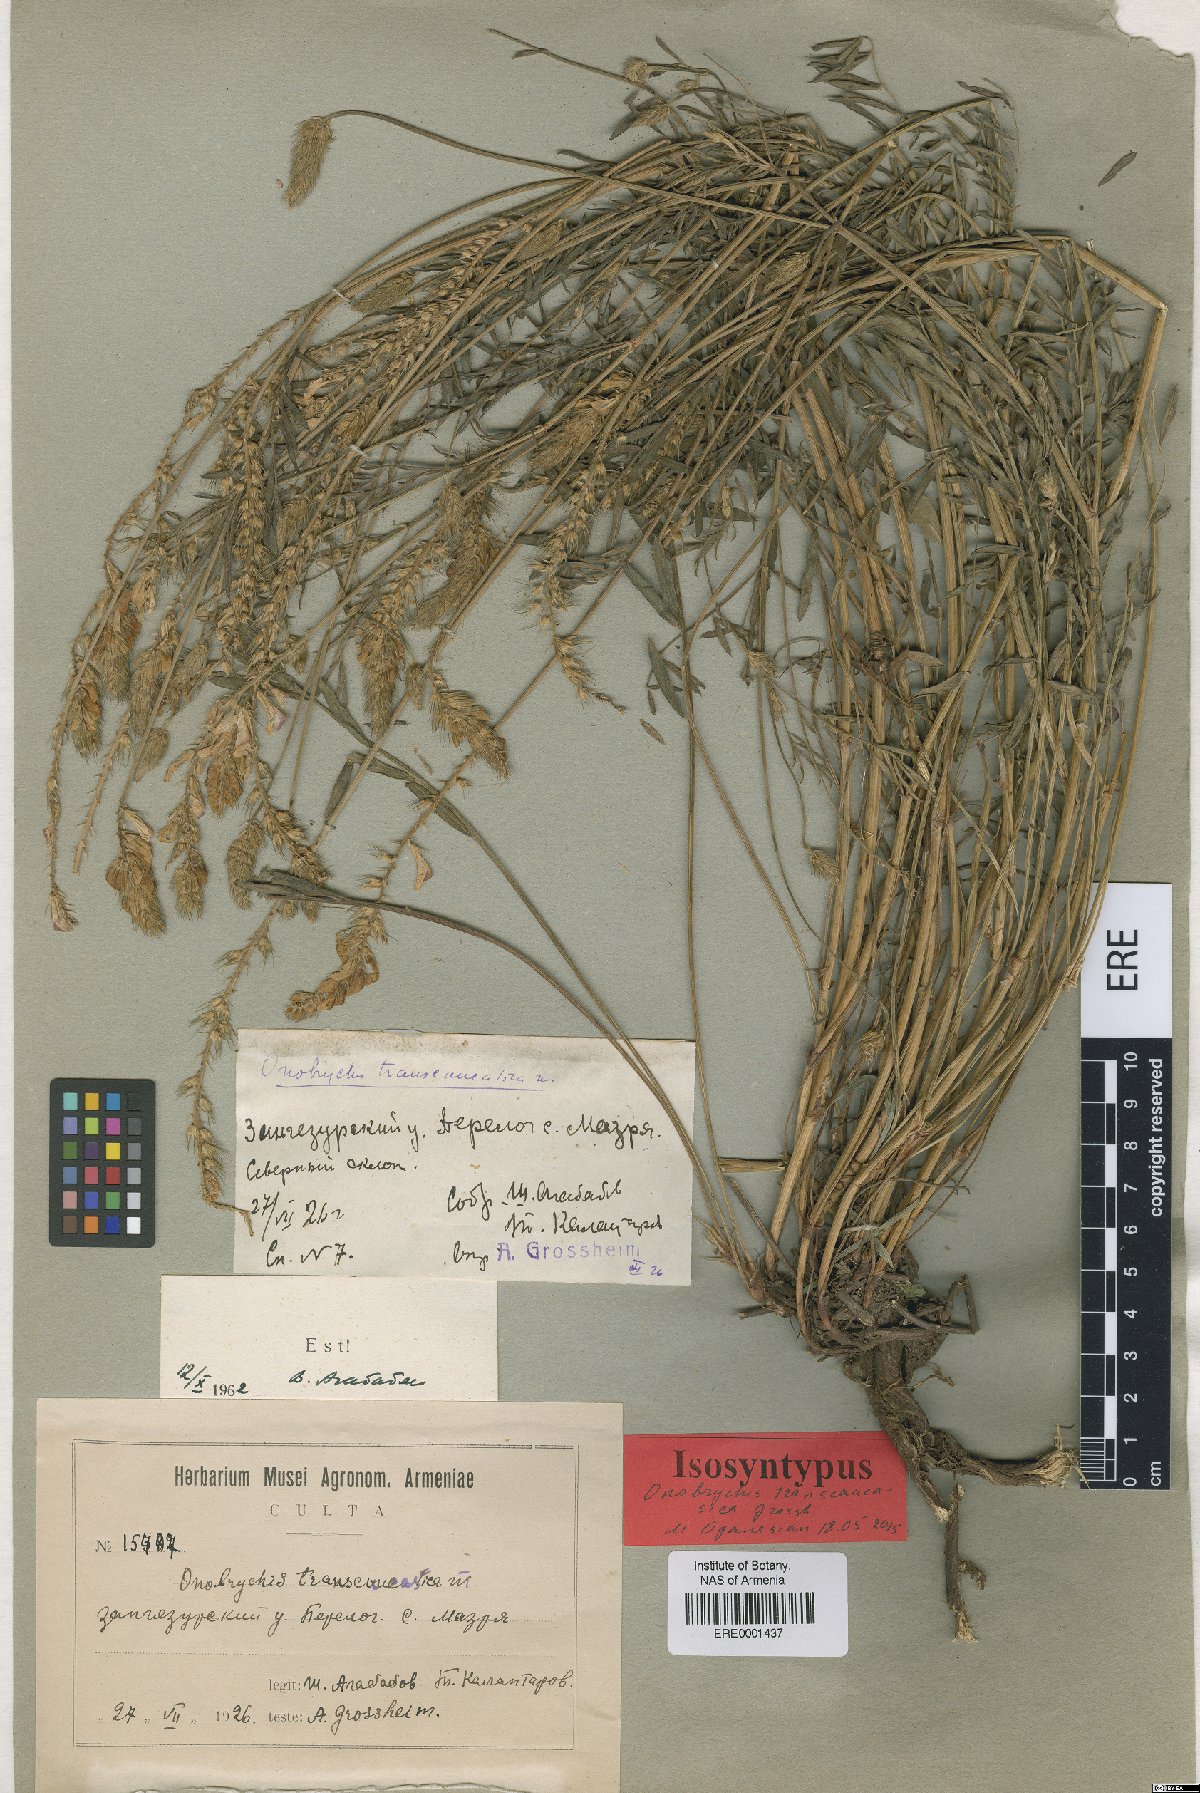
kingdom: Plantae
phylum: Tracheophyta
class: Magnoliopsida
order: Fabales
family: Fabaceae
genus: Onobrychis
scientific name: Onobrychis transcaucasica
